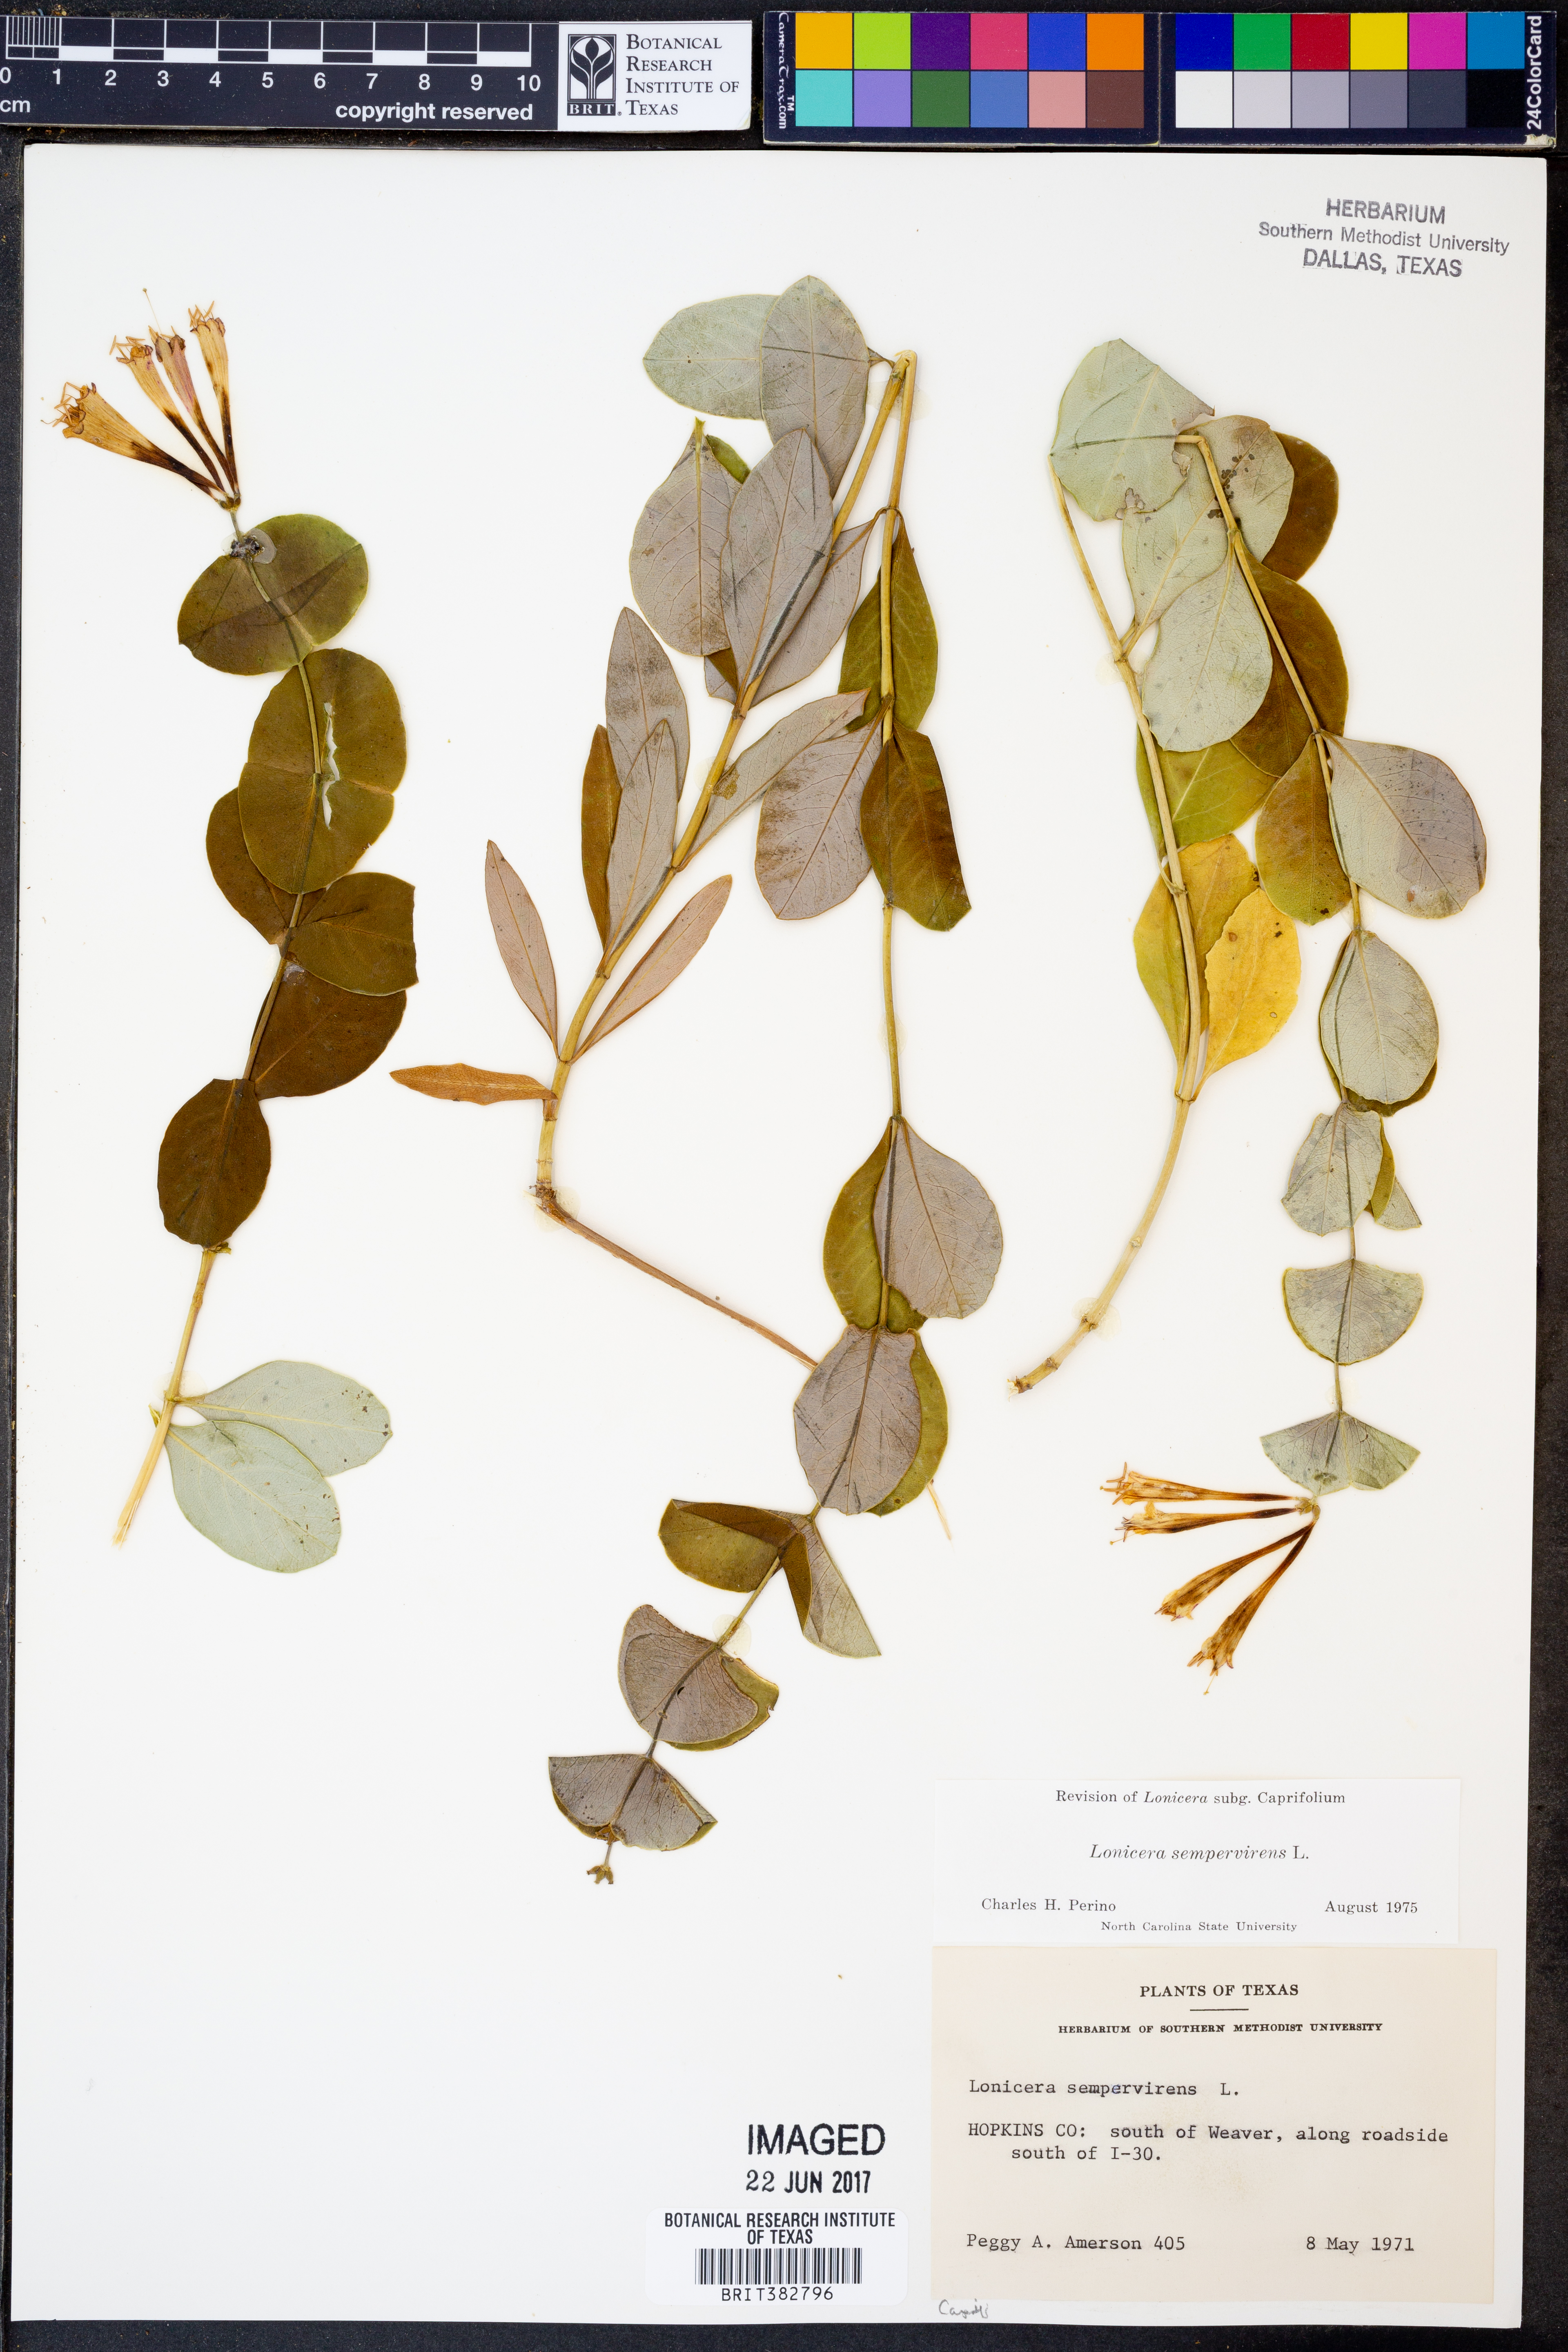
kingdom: Plantae
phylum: Tracheophyta
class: Magnoliopsida
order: Dipsacales
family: Caprifoliaceae
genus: Lonicera
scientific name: Lonicera sempervirens
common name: Coral honeysuckle
